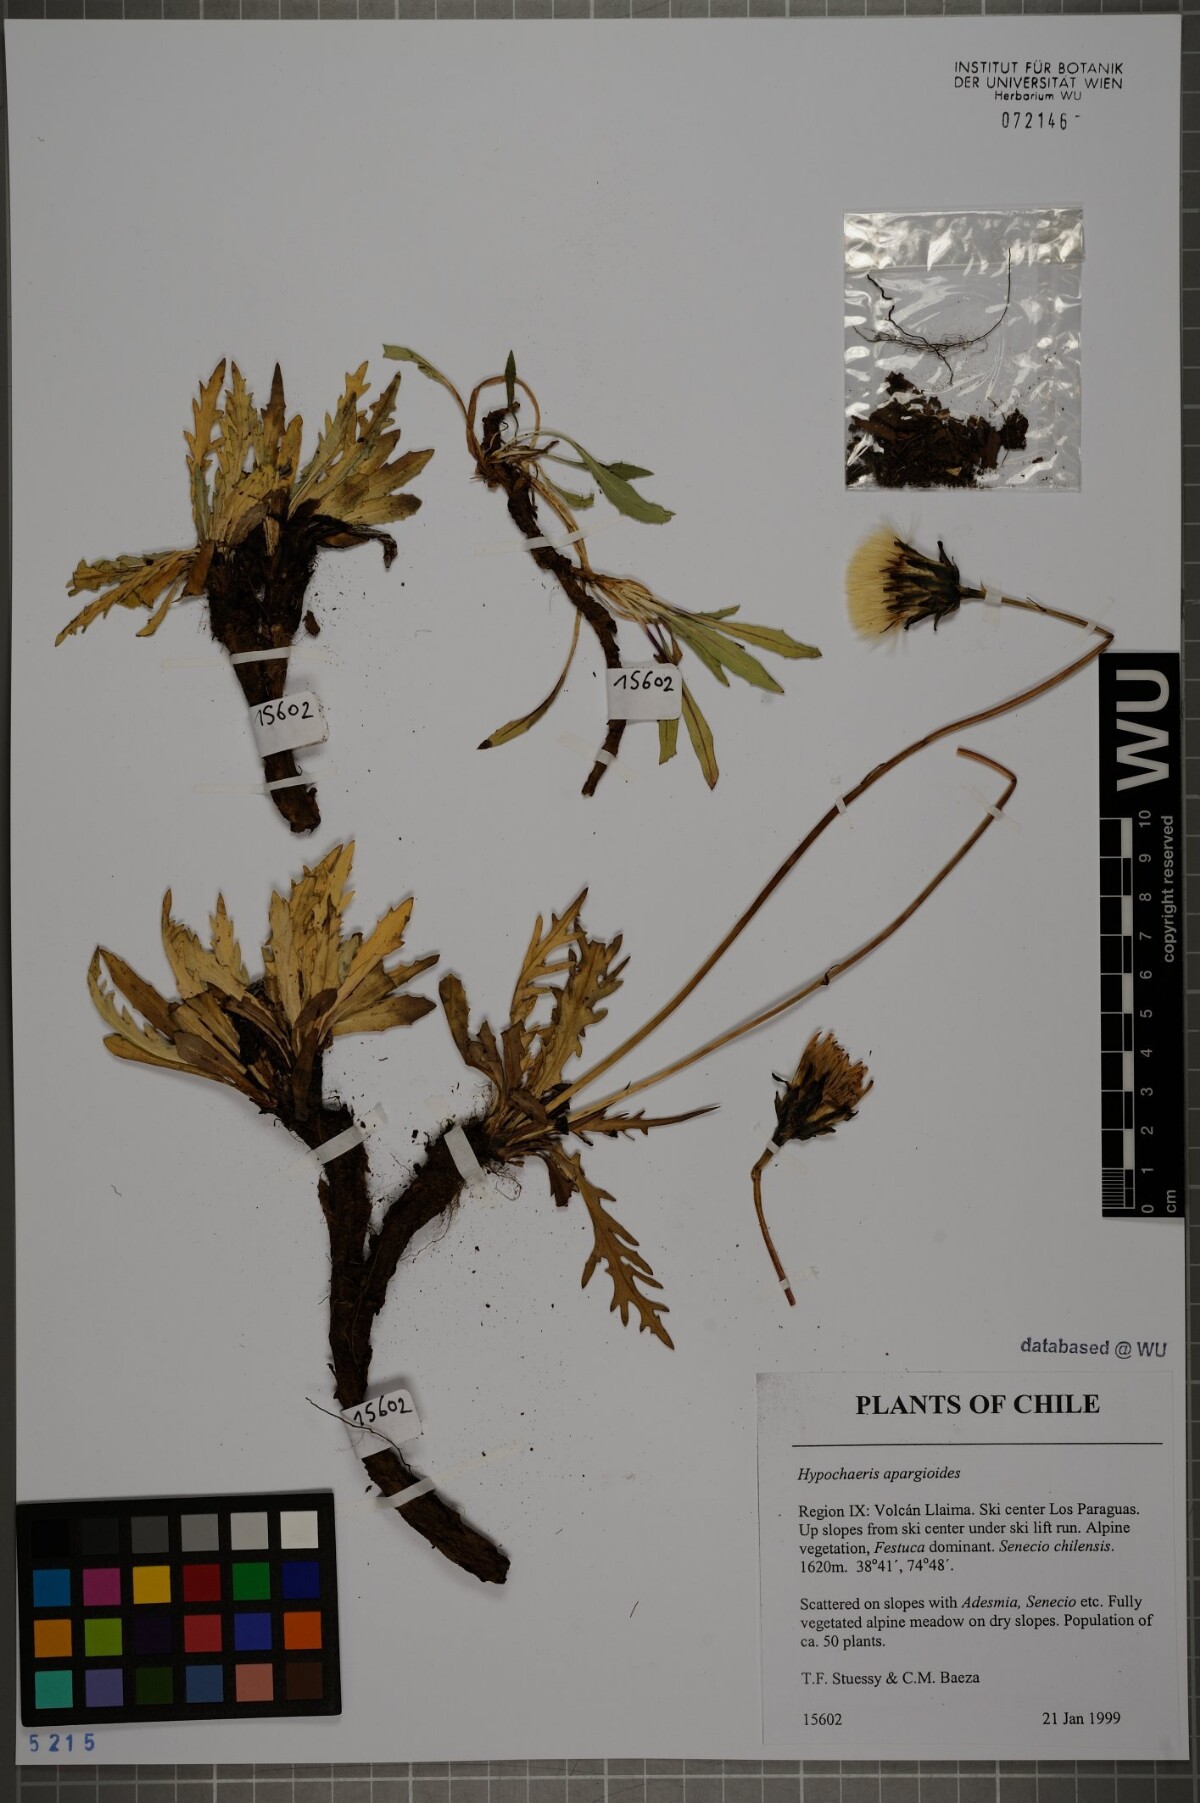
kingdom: Plantae
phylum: Tracheophyta
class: Magnoliopsida
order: Asterales
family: Asteraceae
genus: Hypochaeris
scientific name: Hypochaeris apargioides
